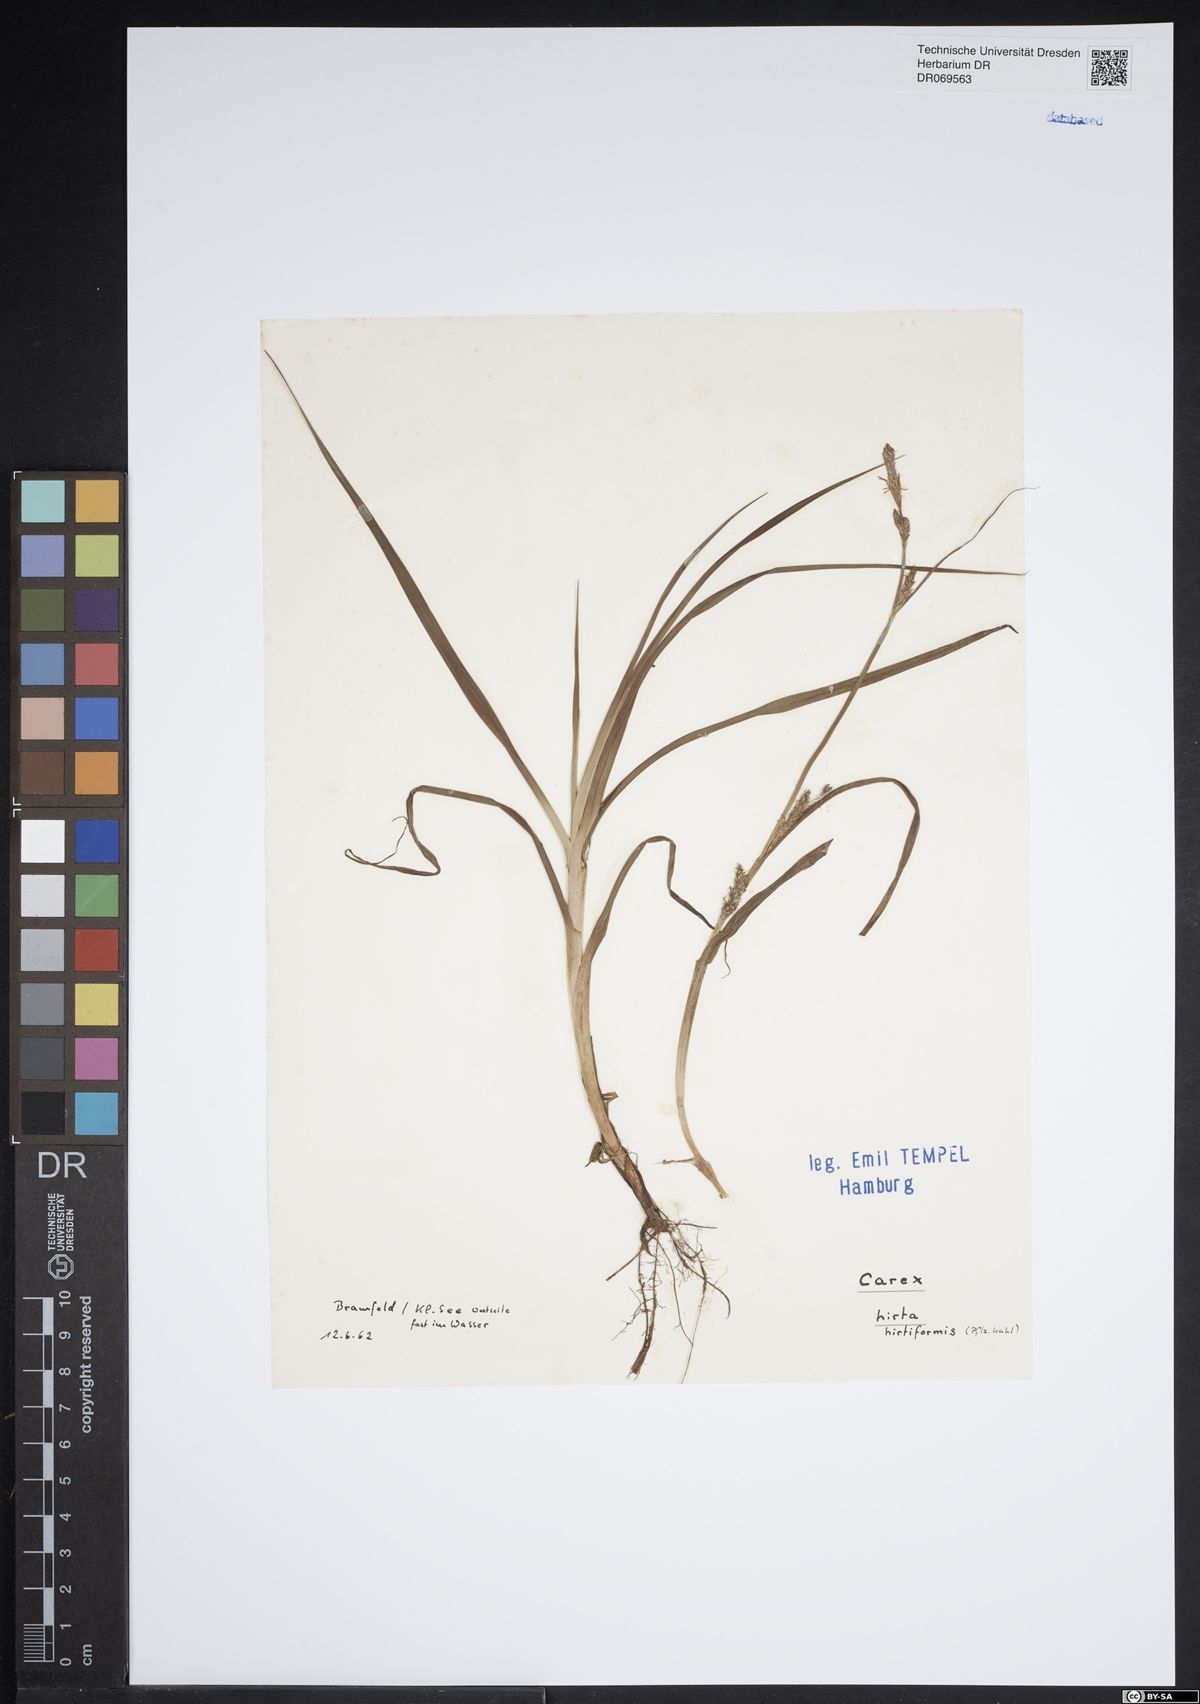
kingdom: Plantae
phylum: Tracheophyta
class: Liliopsida
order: Poales
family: Cyperaceae
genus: Carex
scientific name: Carex hirta
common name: Hairy sedge
